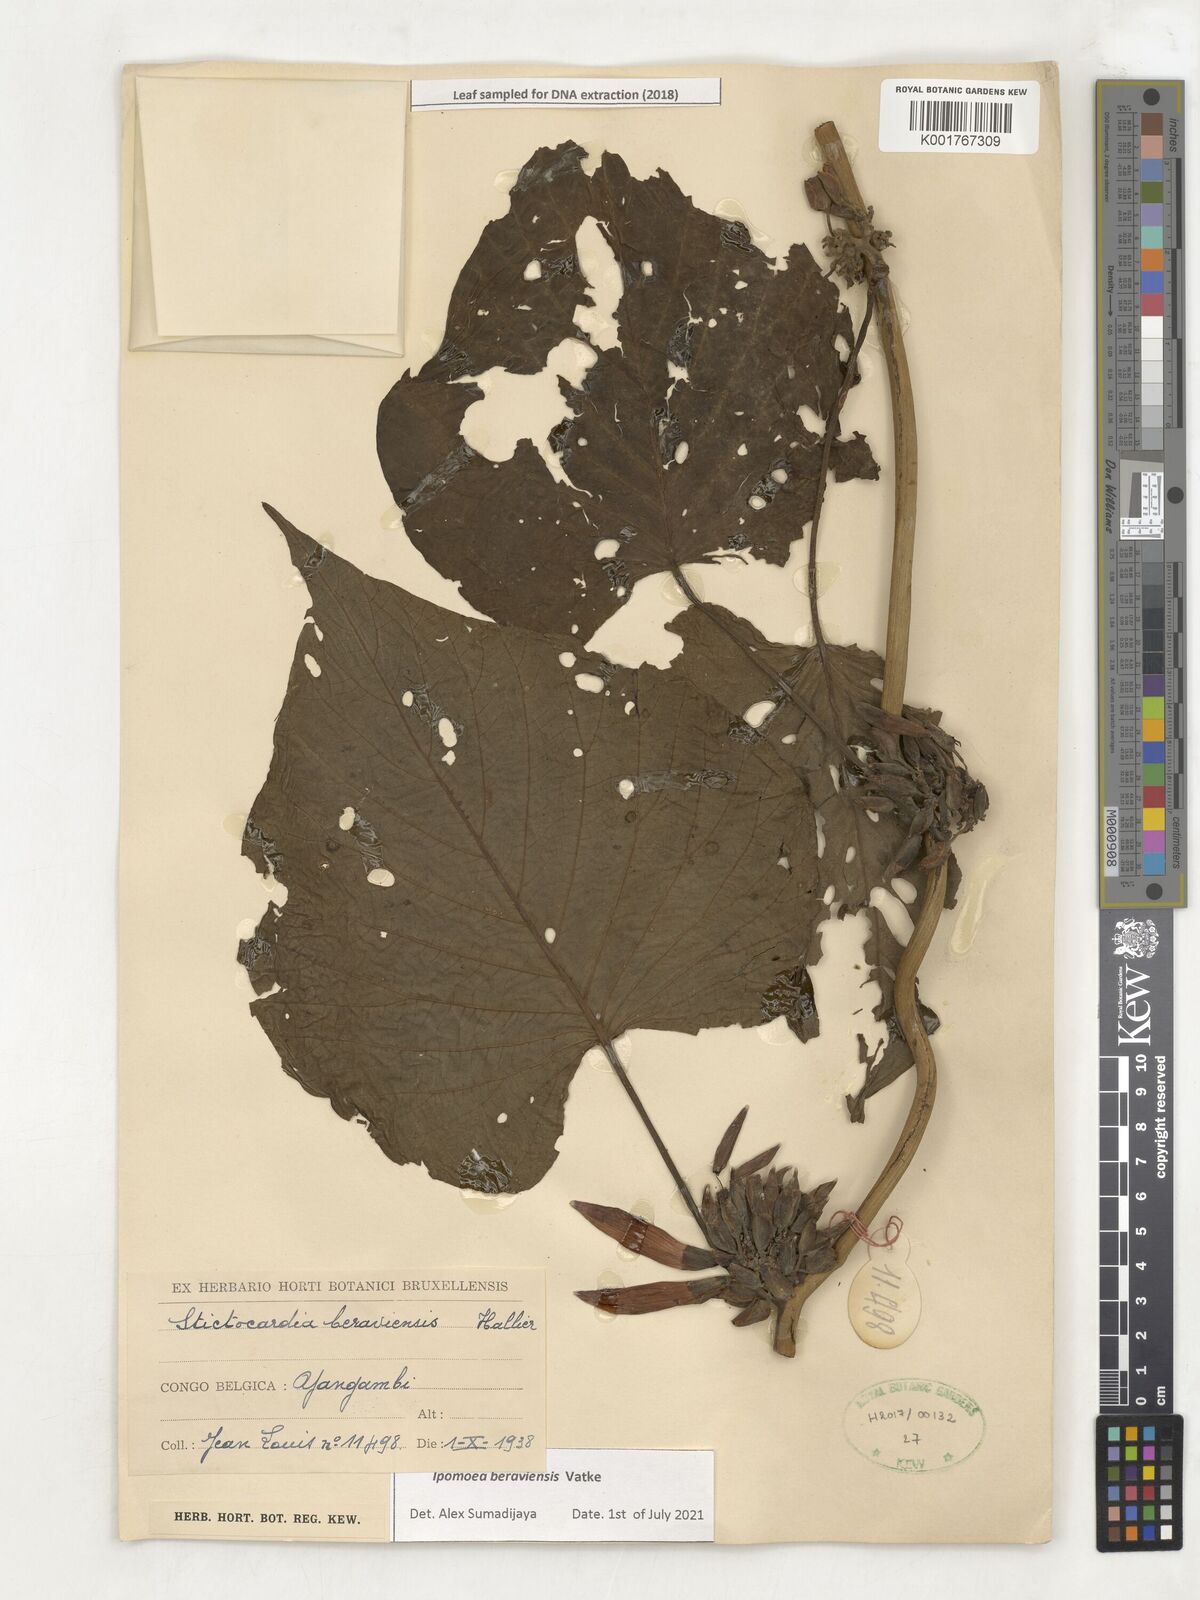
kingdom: Plantae
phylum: Tracheophyta
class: Magnoliopsida
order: Solanales
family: Convolvulaceae
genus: Stictocardia
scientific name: Stictocardia beraviensis
